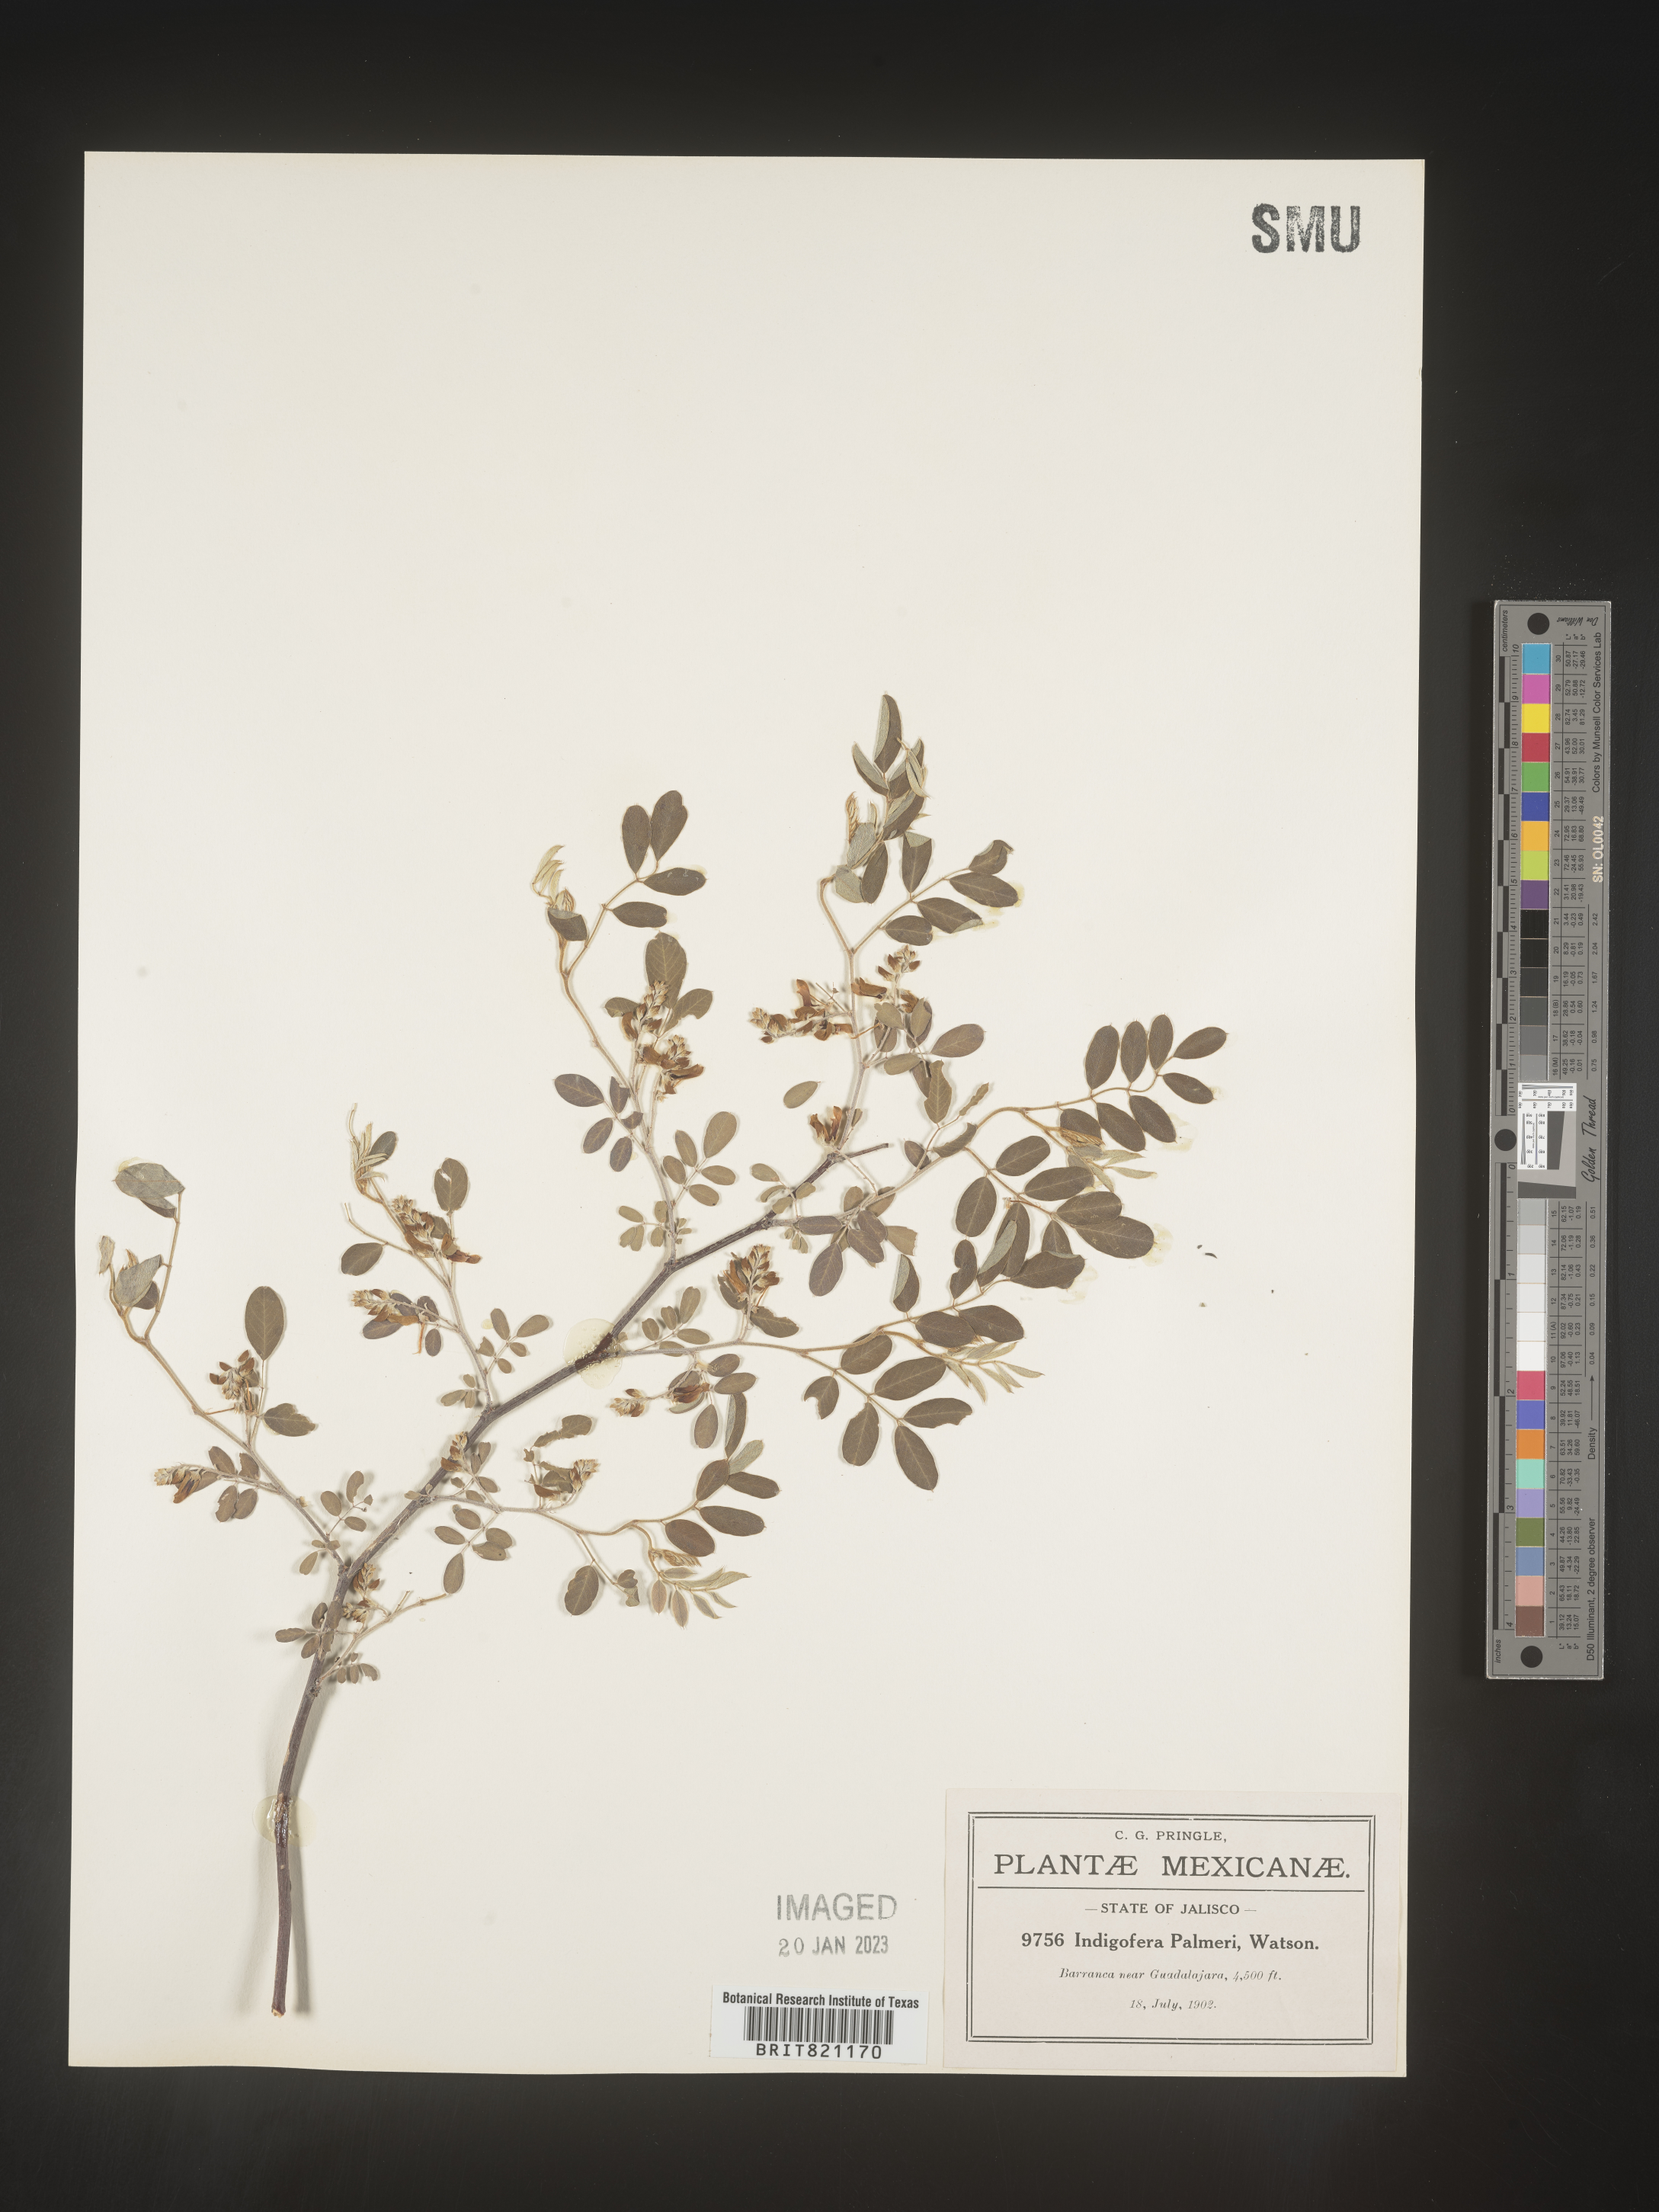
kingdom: Plantae
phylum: Tracheophyta
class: Magnoliopsida
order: Fabales
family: Fabaceae
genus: Indigofera
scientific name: Indigofera
